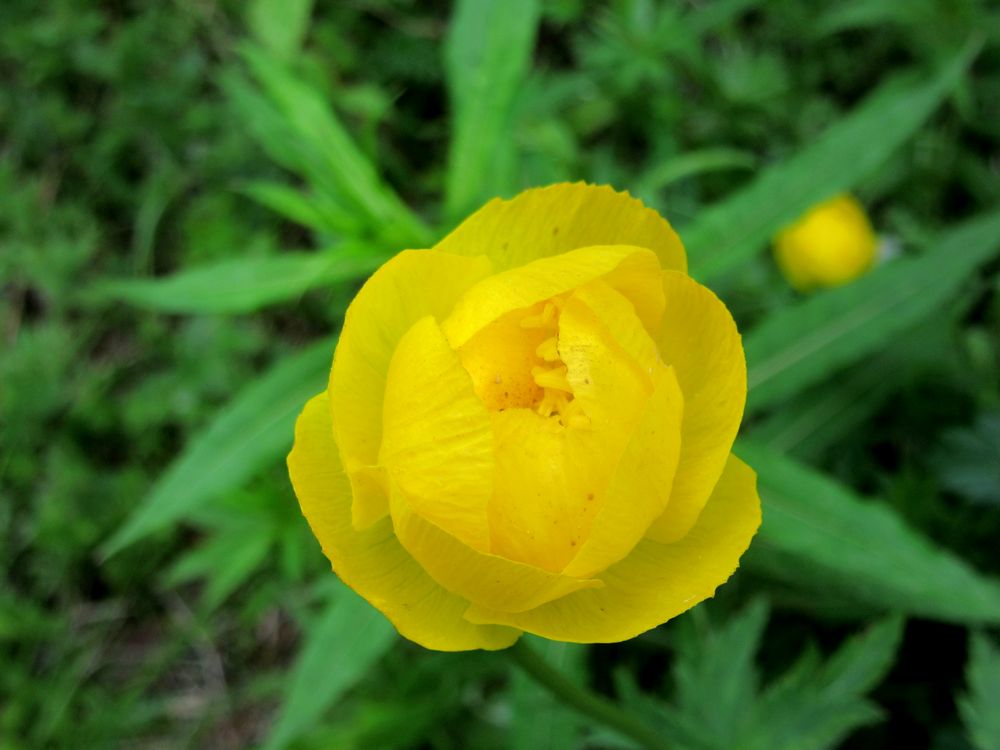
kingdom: Plantae
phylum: Tracheophyta
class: Magnoliopsida
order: Ranunculales
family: Ranunculaceae
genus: Trollius
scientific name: Trollius europaeus
